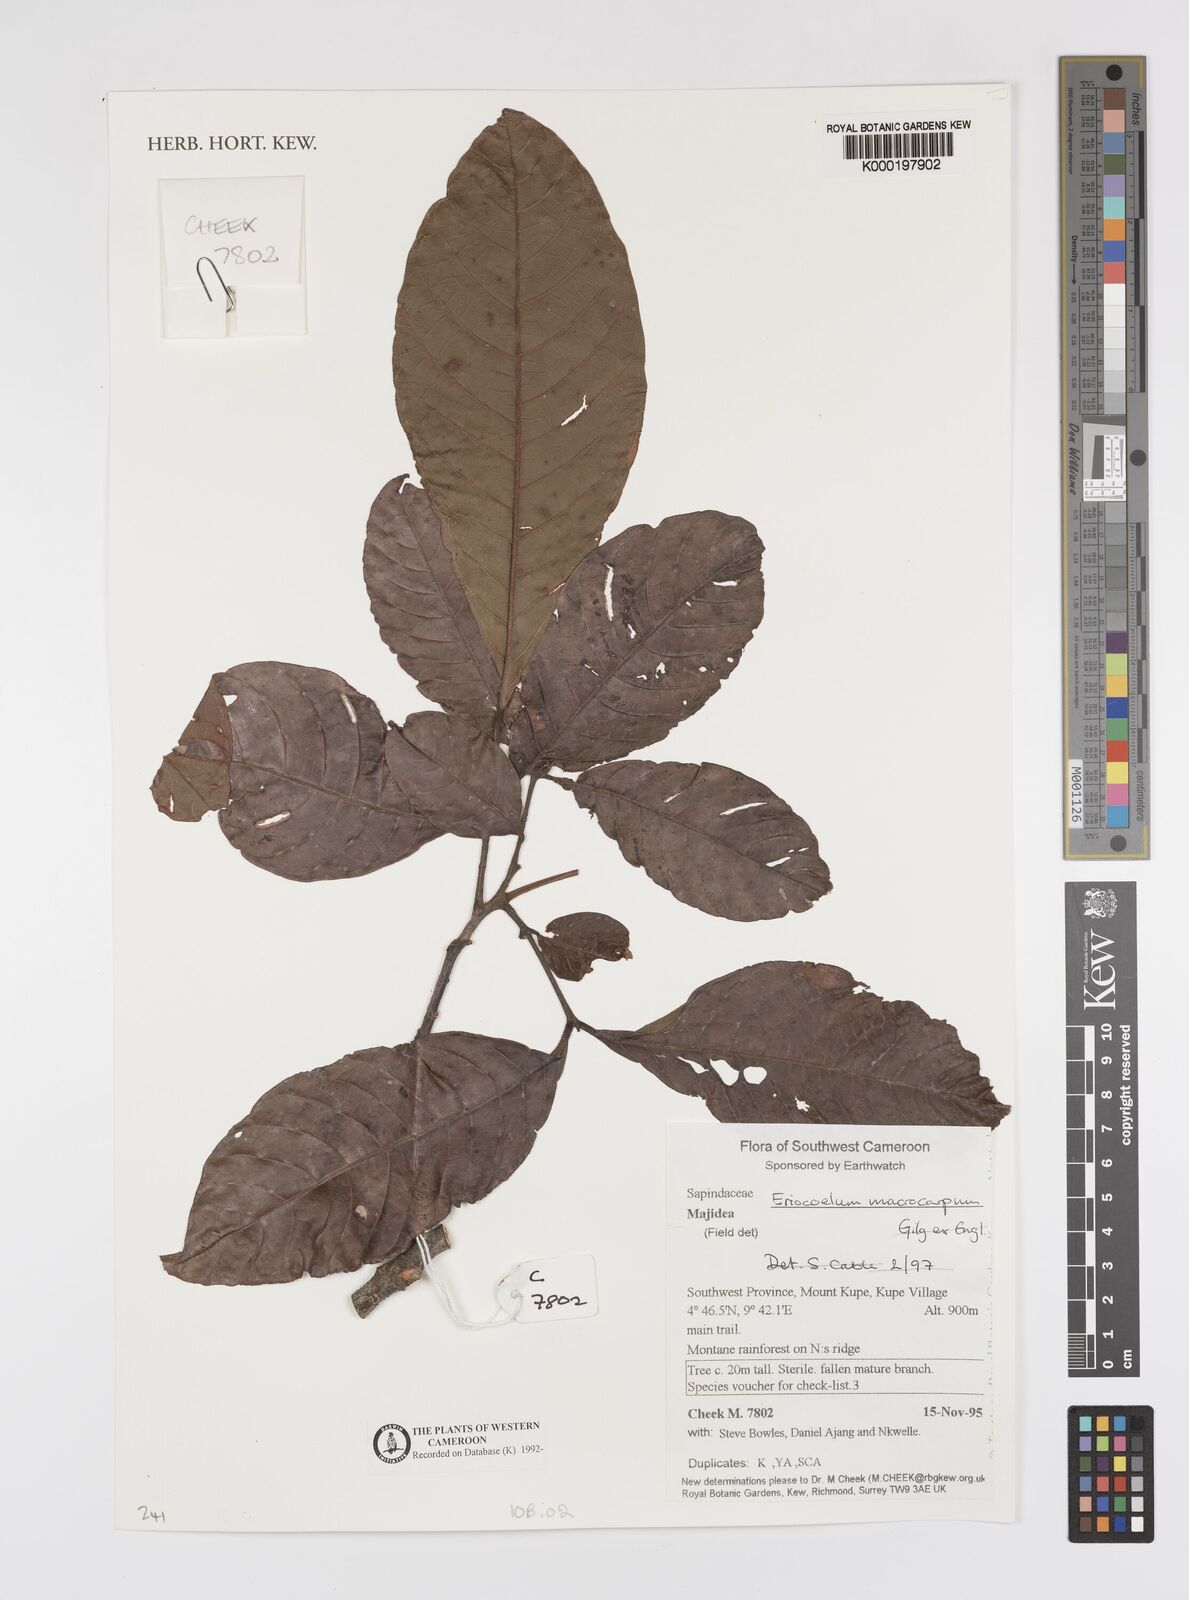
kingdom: Plantae
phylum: Tracheophyta
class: Magnoliopsida
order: Sapindales
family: Sapindaceae
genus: Eriocoelum
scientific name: Eriocoelum
